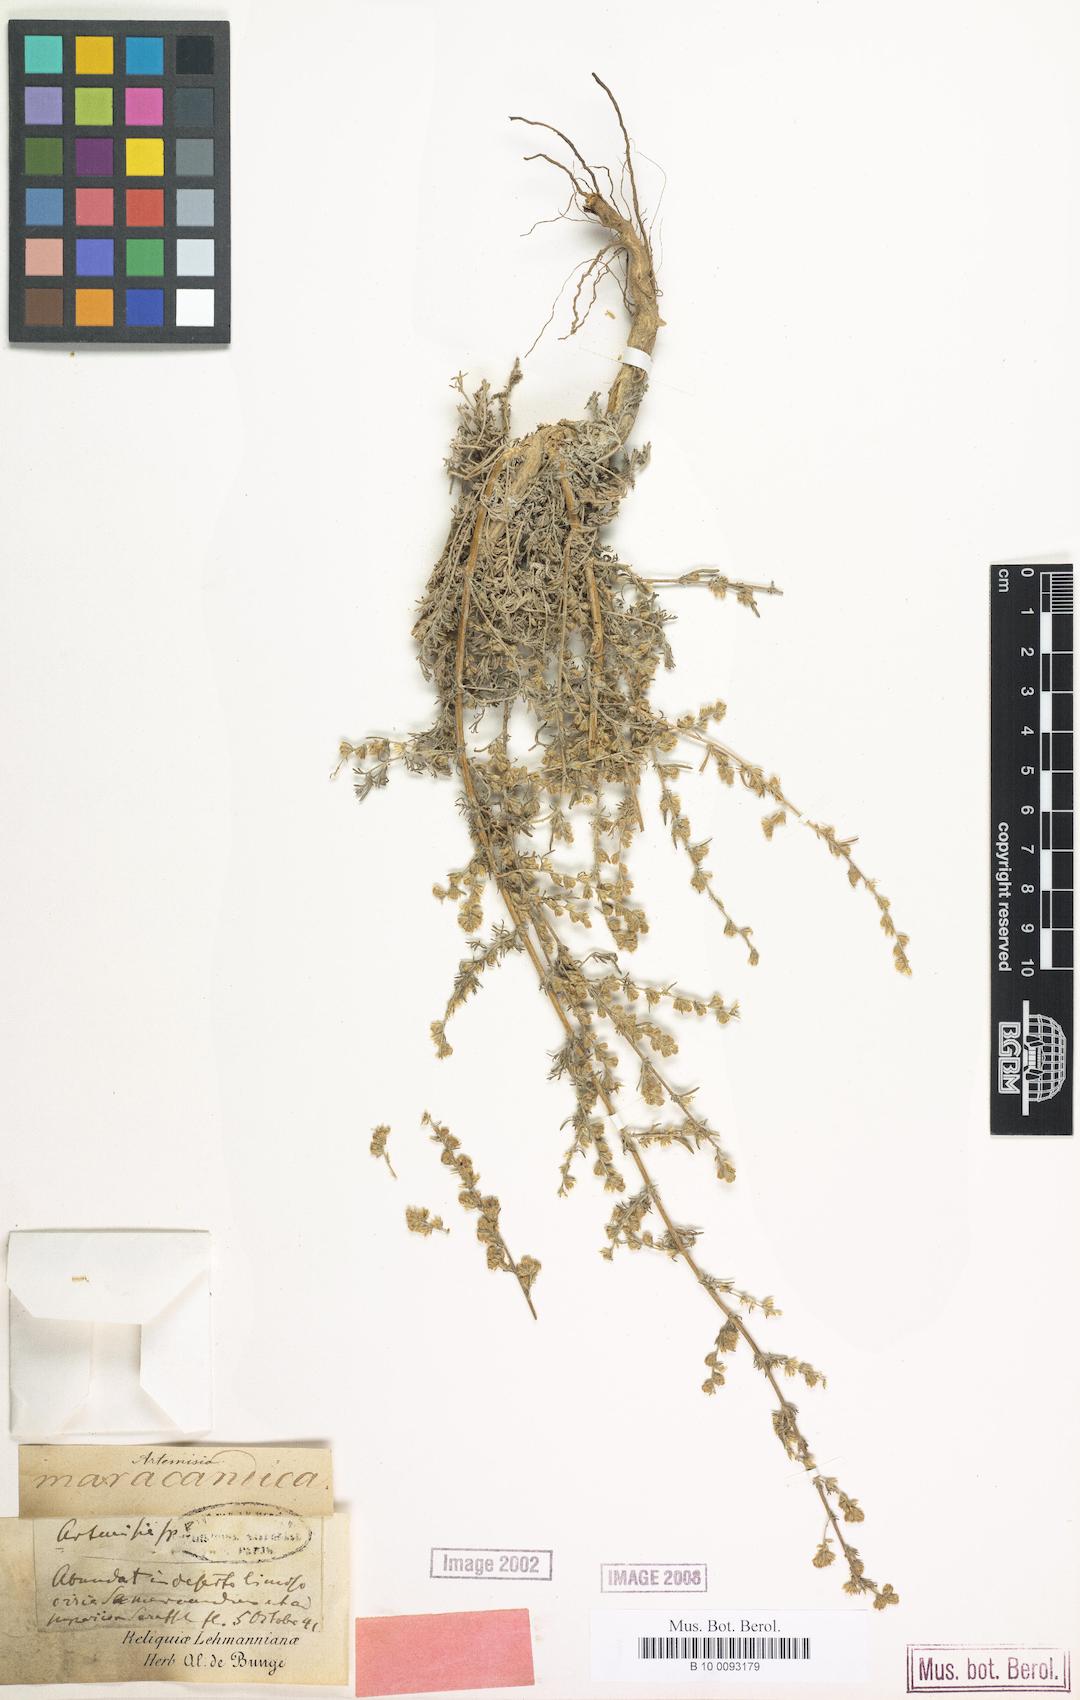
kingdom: Plantae
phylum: Tracheophyta
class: Magnoliopsida
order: Asterales
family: Asteraceae
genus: Artemisia
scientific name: Artemisia oliveriana
